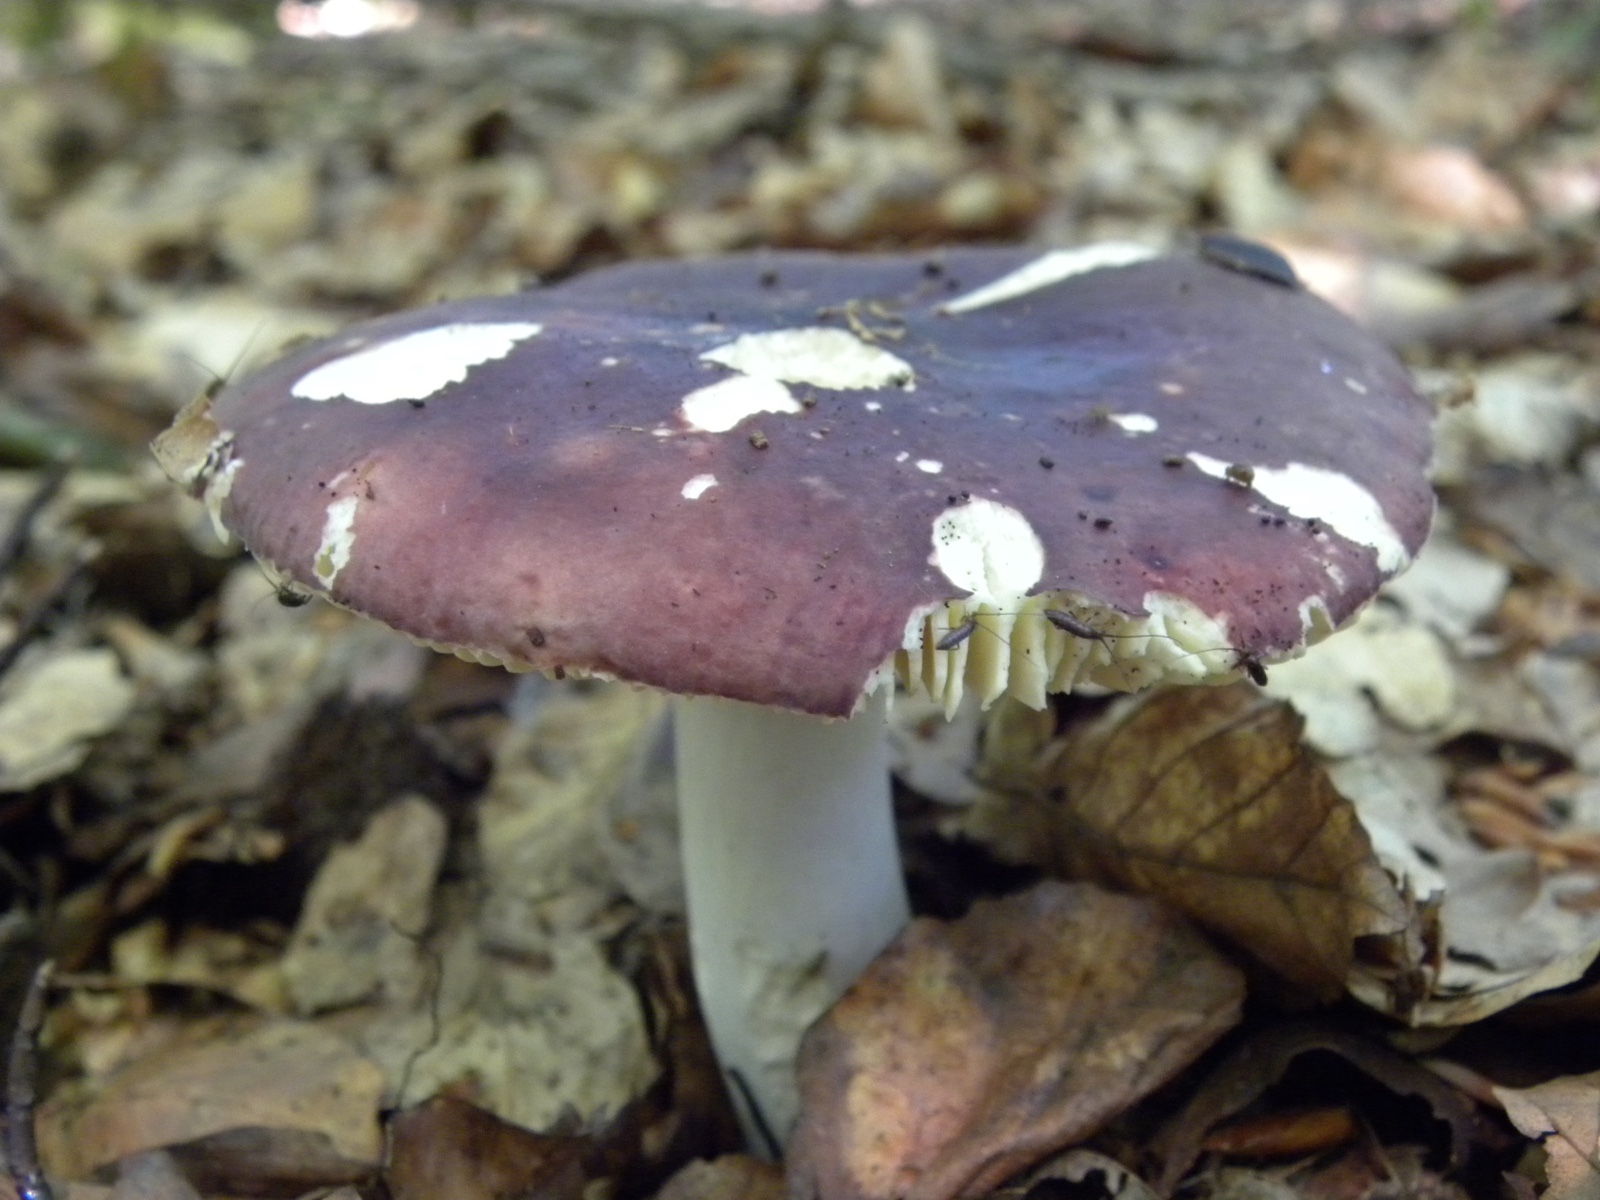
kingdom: Fungi
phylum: Basidiomycota
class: Agaricomycetes
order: Russulales
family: Russulaceae
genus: Russula
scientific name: Russula
